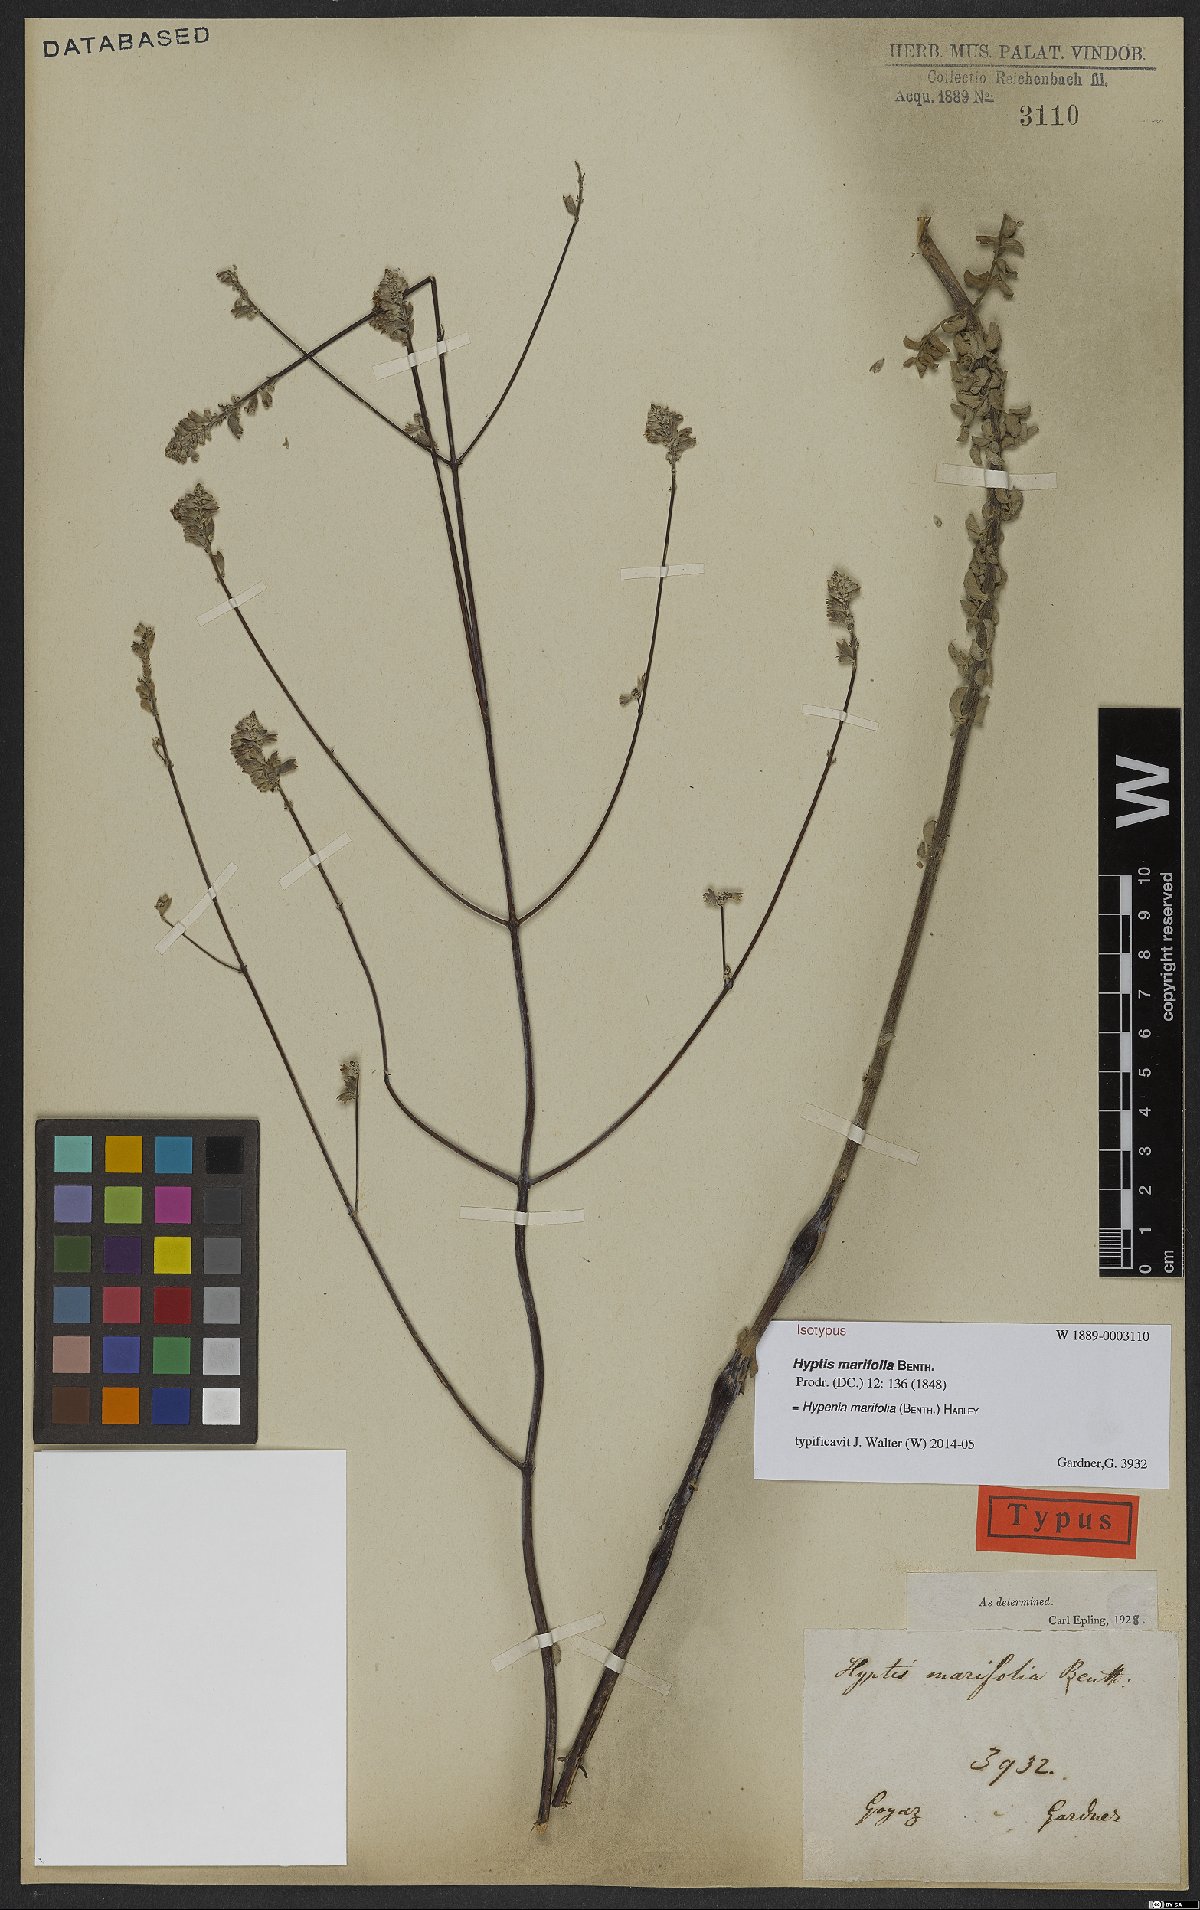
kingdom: Plantae
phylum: Tracheophyta
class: Magnoliopsida
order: Lamiales
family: Lamiaceae
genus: Hypenia
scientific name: Hypenia marifolia
